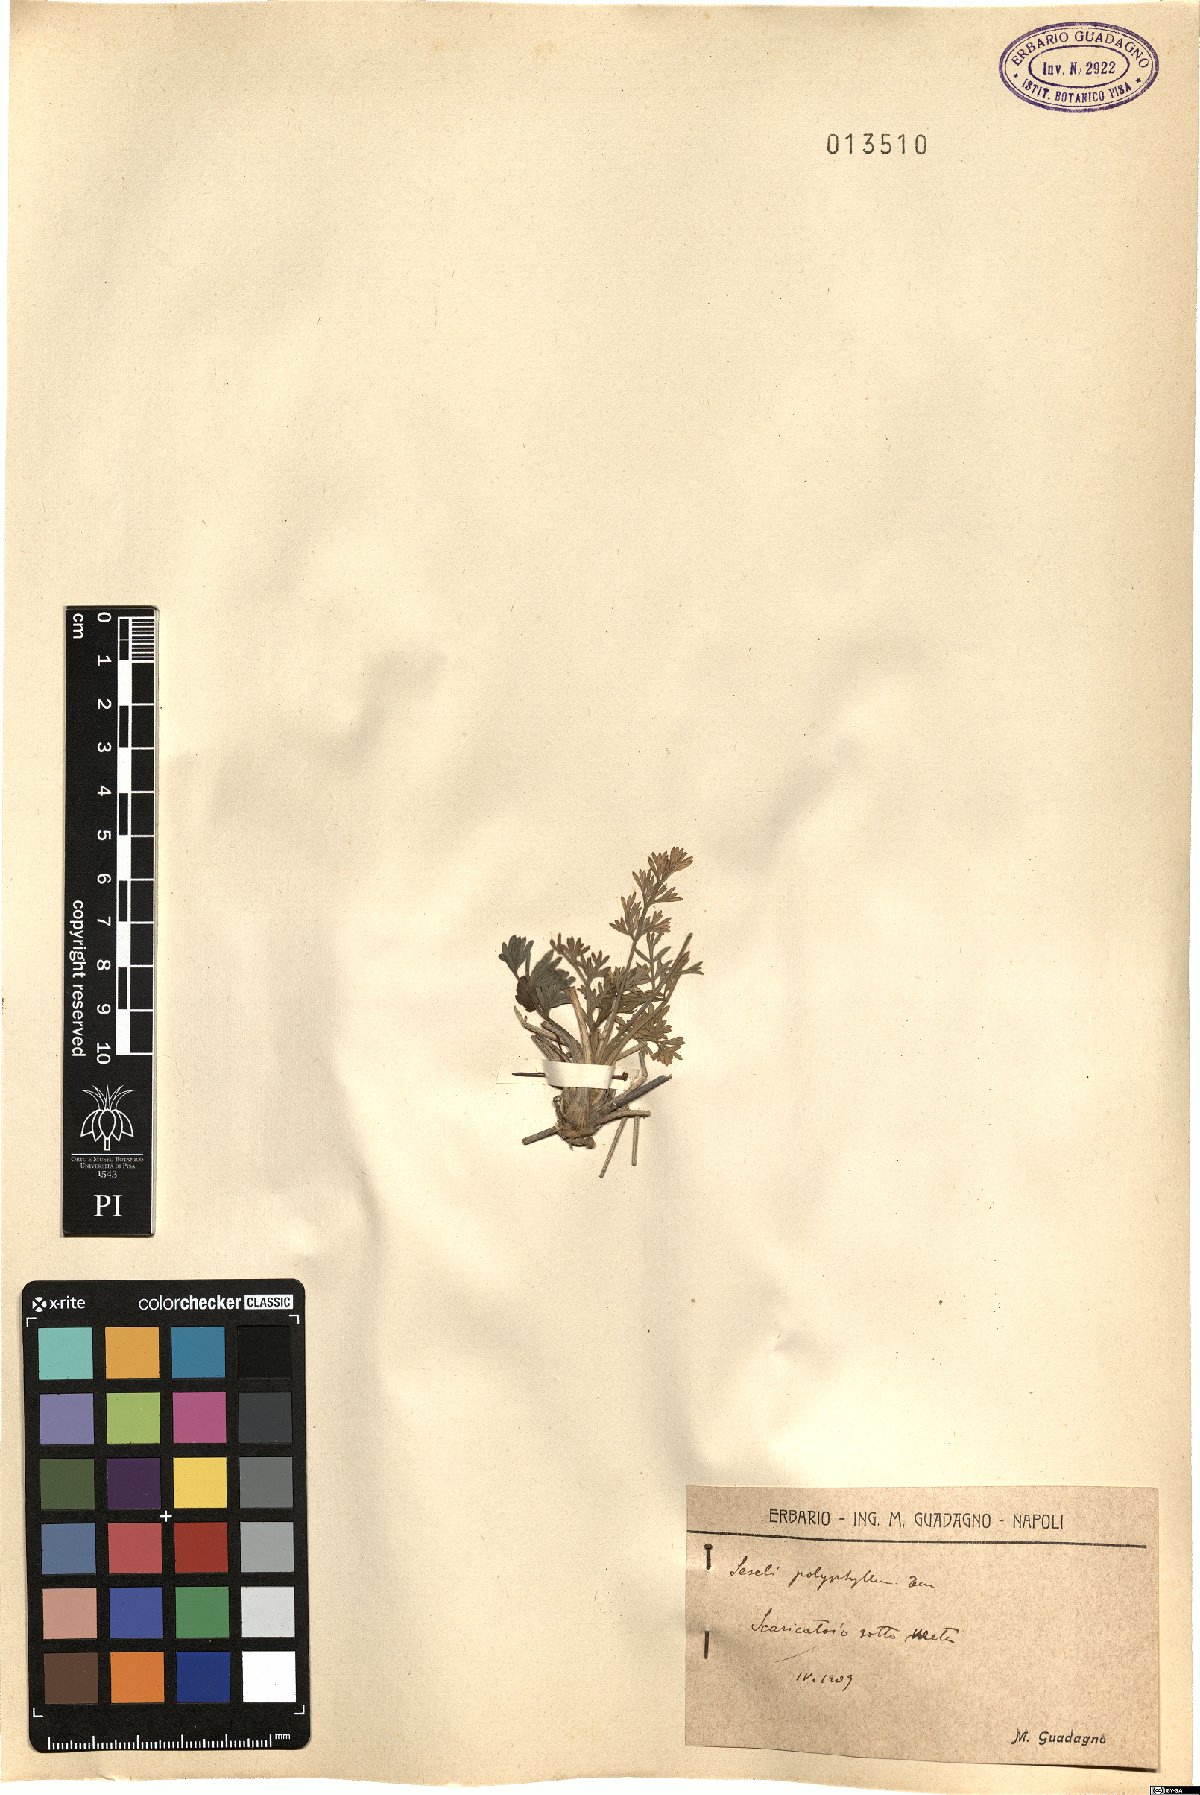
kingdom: Plantae
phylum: Tracheophyta
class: Magnoliopsida
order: Apiales
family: Apiaceae
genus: Seseli
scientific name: Seseli polyphyllum
